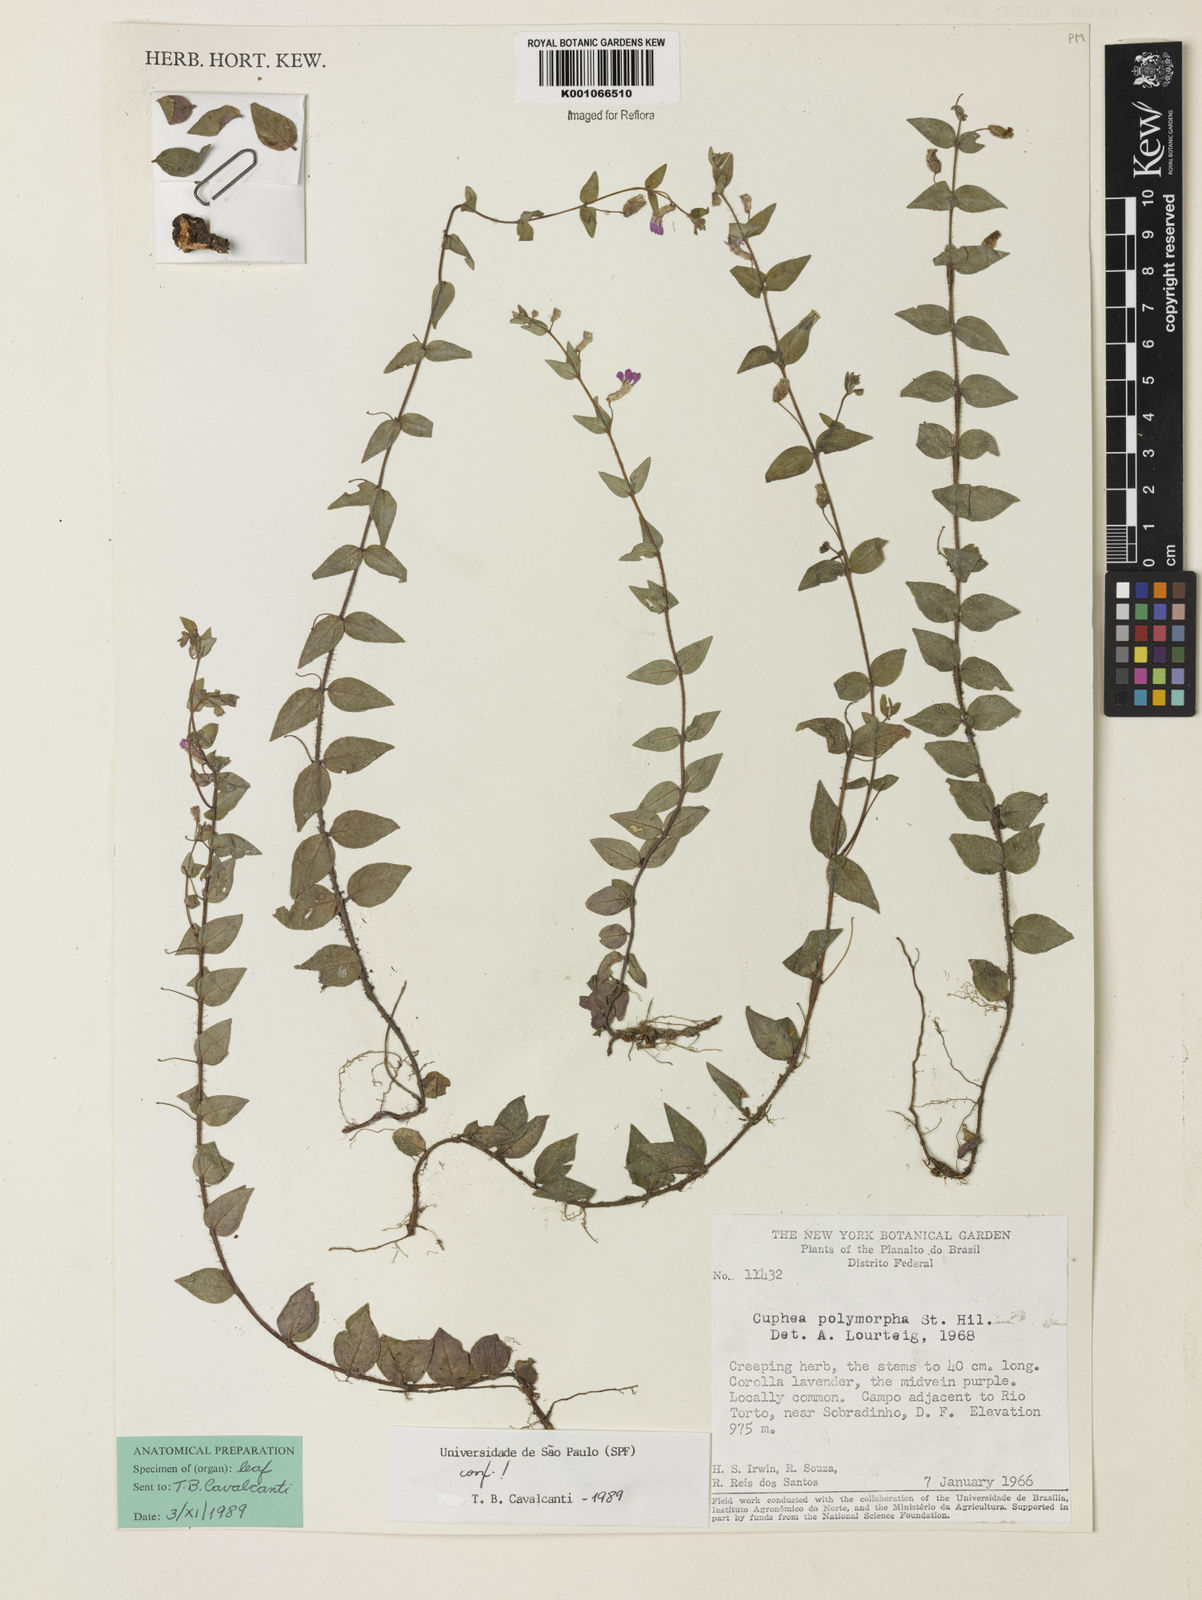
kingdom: Plantae
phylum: Tracheophyta
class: Magnoliopsida
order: Myrtales
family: Lythraceae
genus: Cuphea
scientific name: Cuphea polymorpha
